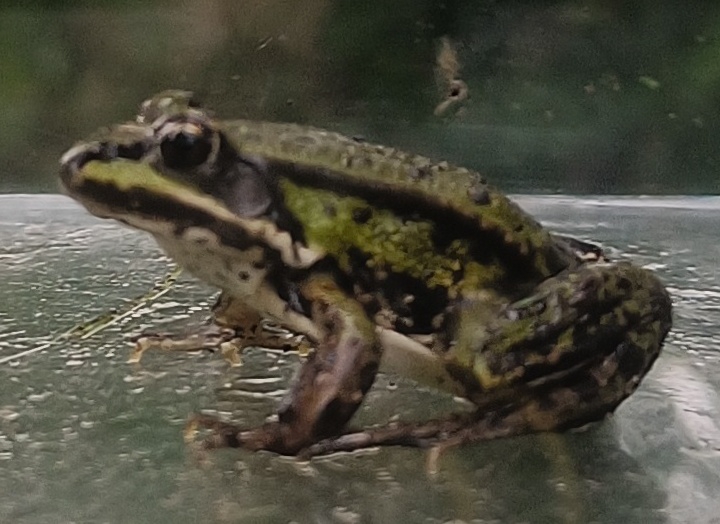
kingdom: Animalia
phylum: Chordata
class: Amphibia
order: Anura
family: Ranidae
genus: Pelophylax
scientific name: Pelophylax lessonae
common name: Grøn frø
